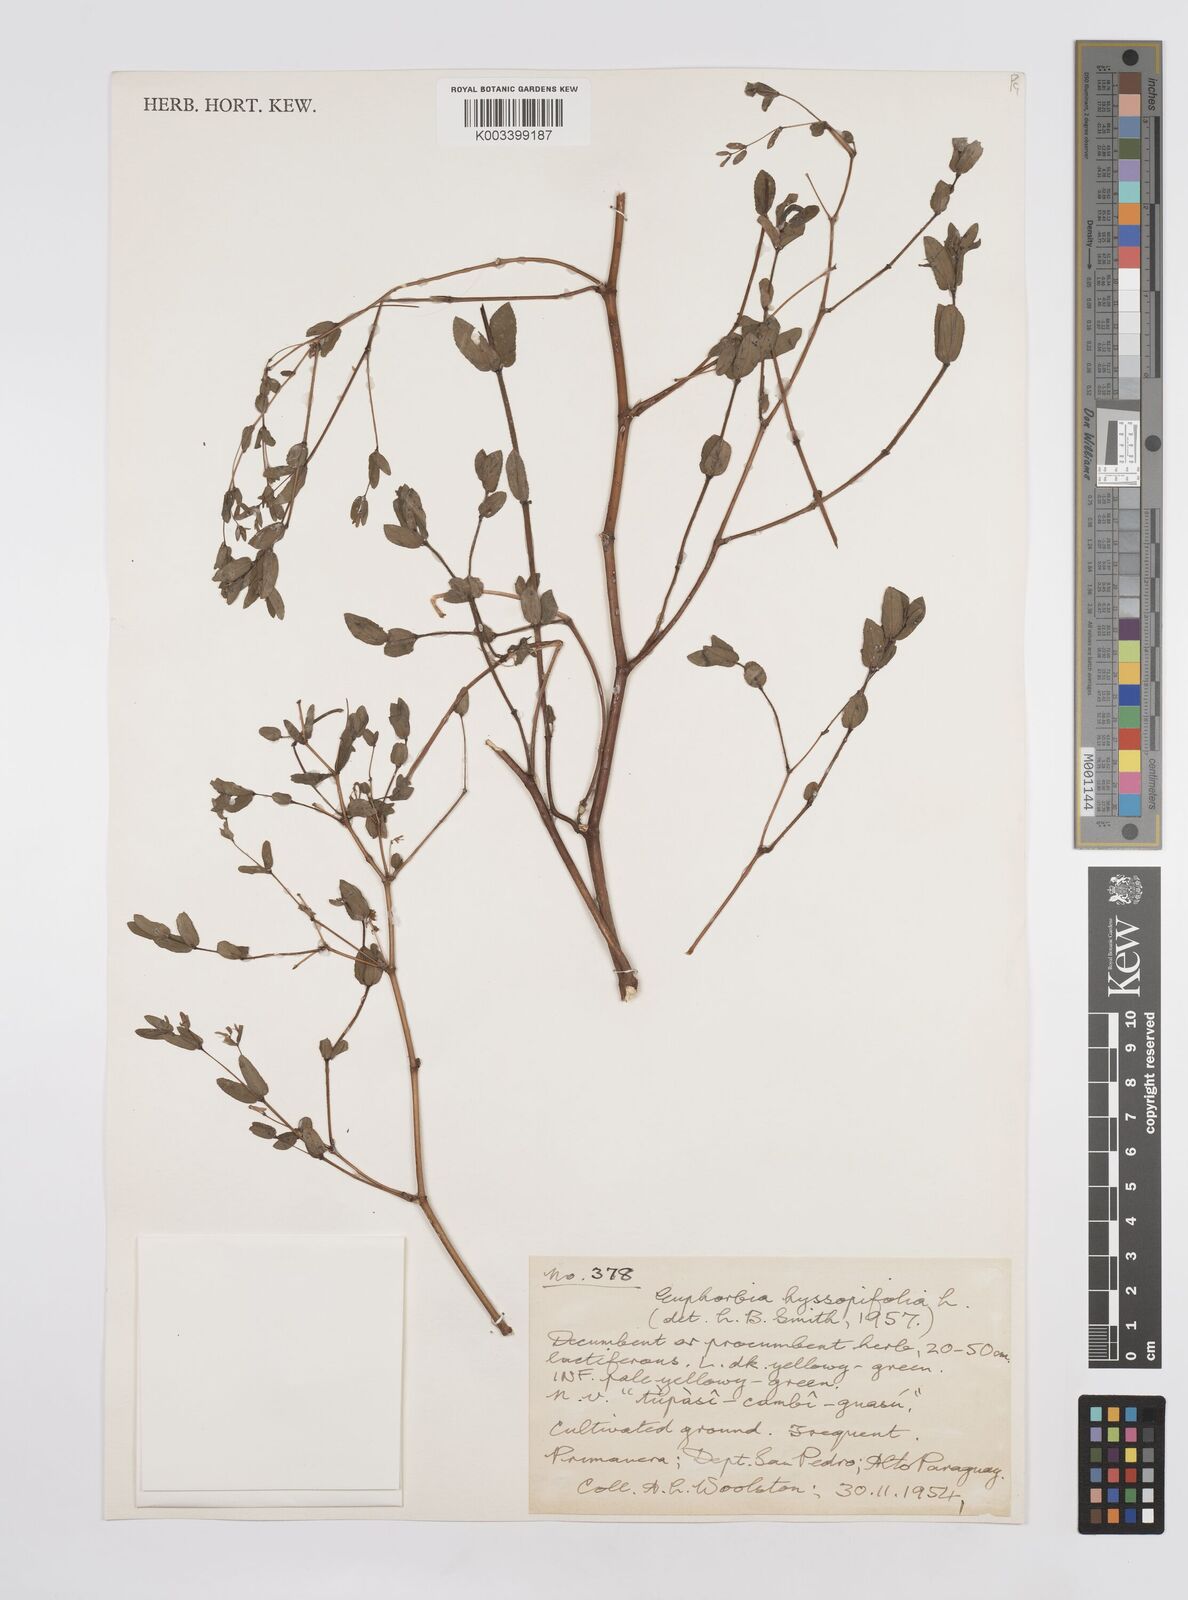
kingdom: Plantae
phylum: Tracheophyta
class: Magnoliopsida
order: Malpighiales
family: Euphorbiaceae
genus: Euphorbia
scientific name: Euphorbia hyssopifolia
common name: Hyssopleaf sandmat
